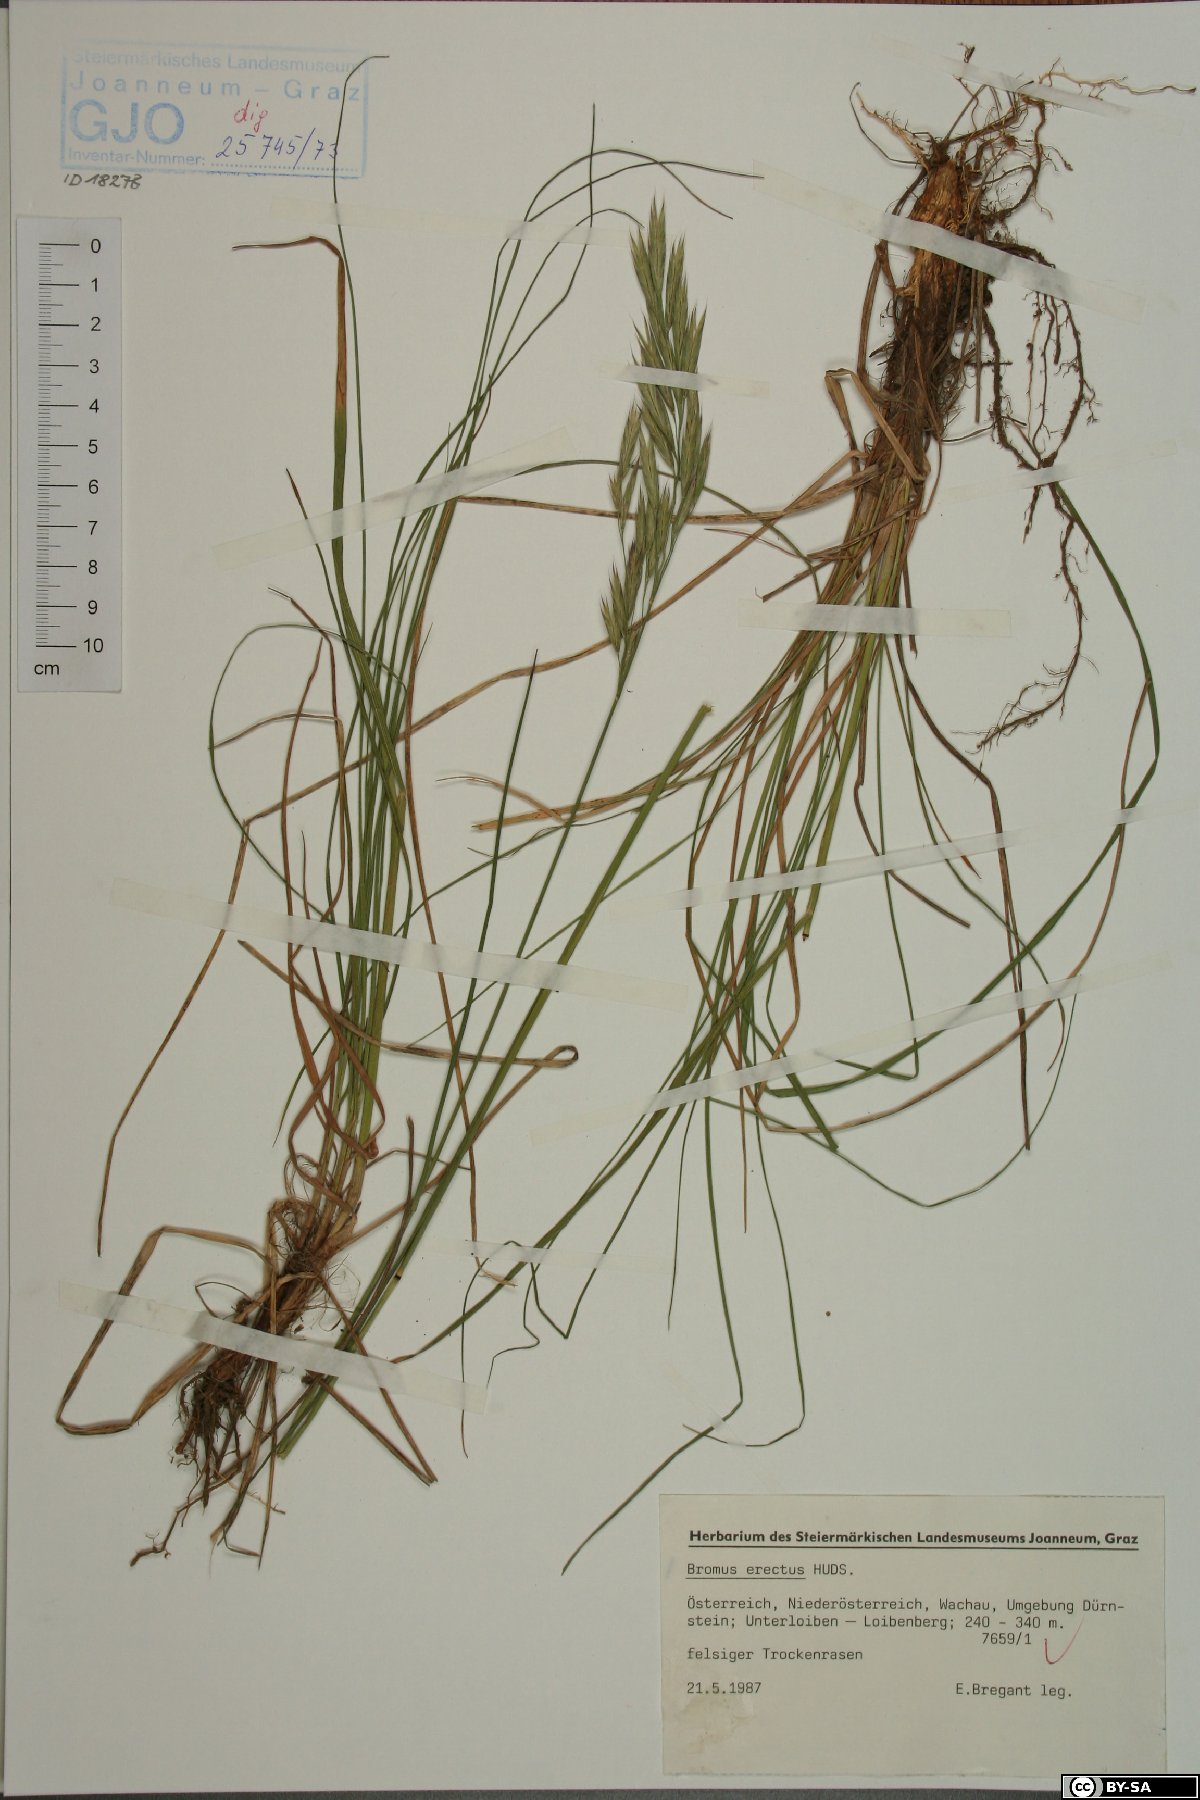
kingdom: Plantae
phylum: Tracheophyta
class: Liliopsida
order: Poales
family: Poaceae
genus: Bromus
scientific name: Bromus erectus
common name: Erect brome
